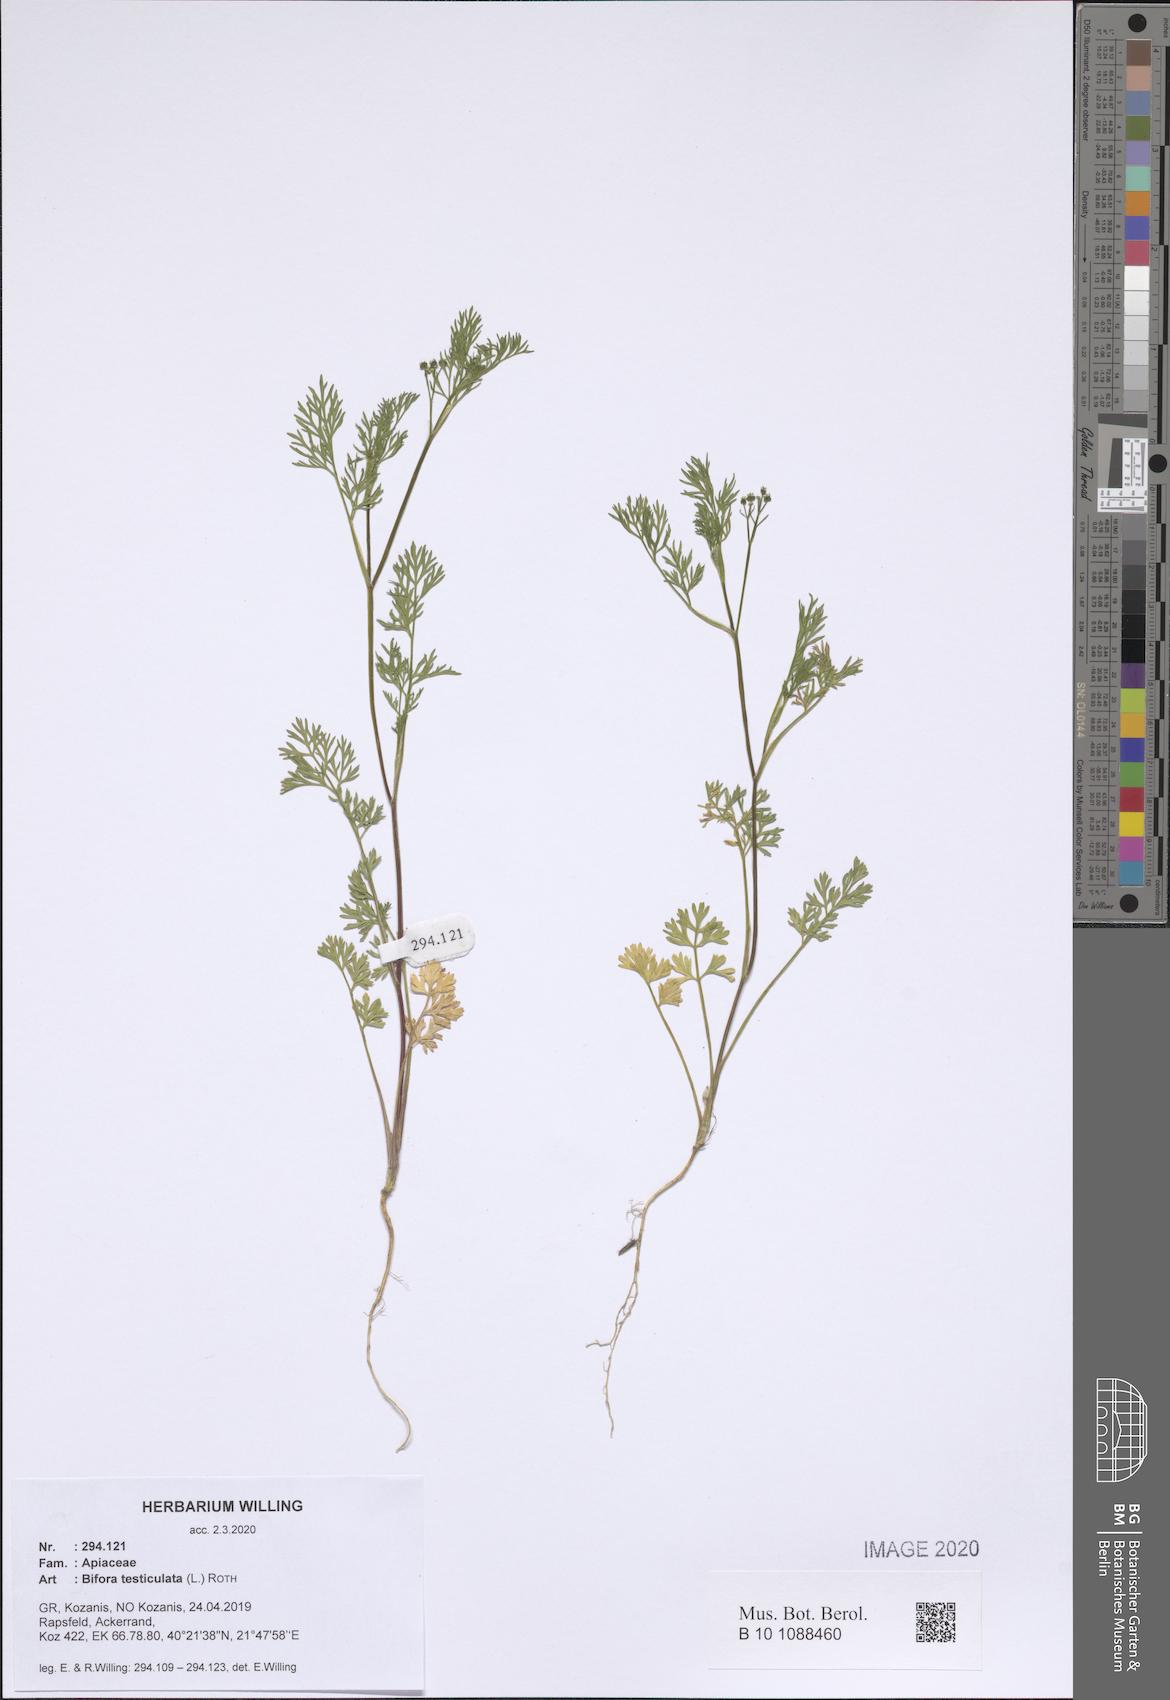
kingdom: Plantae
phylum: Tracheophyta
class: Magnoliopsida
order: Apiales
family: Apiaceae
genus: Bifora
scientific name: Bifora testiculata
